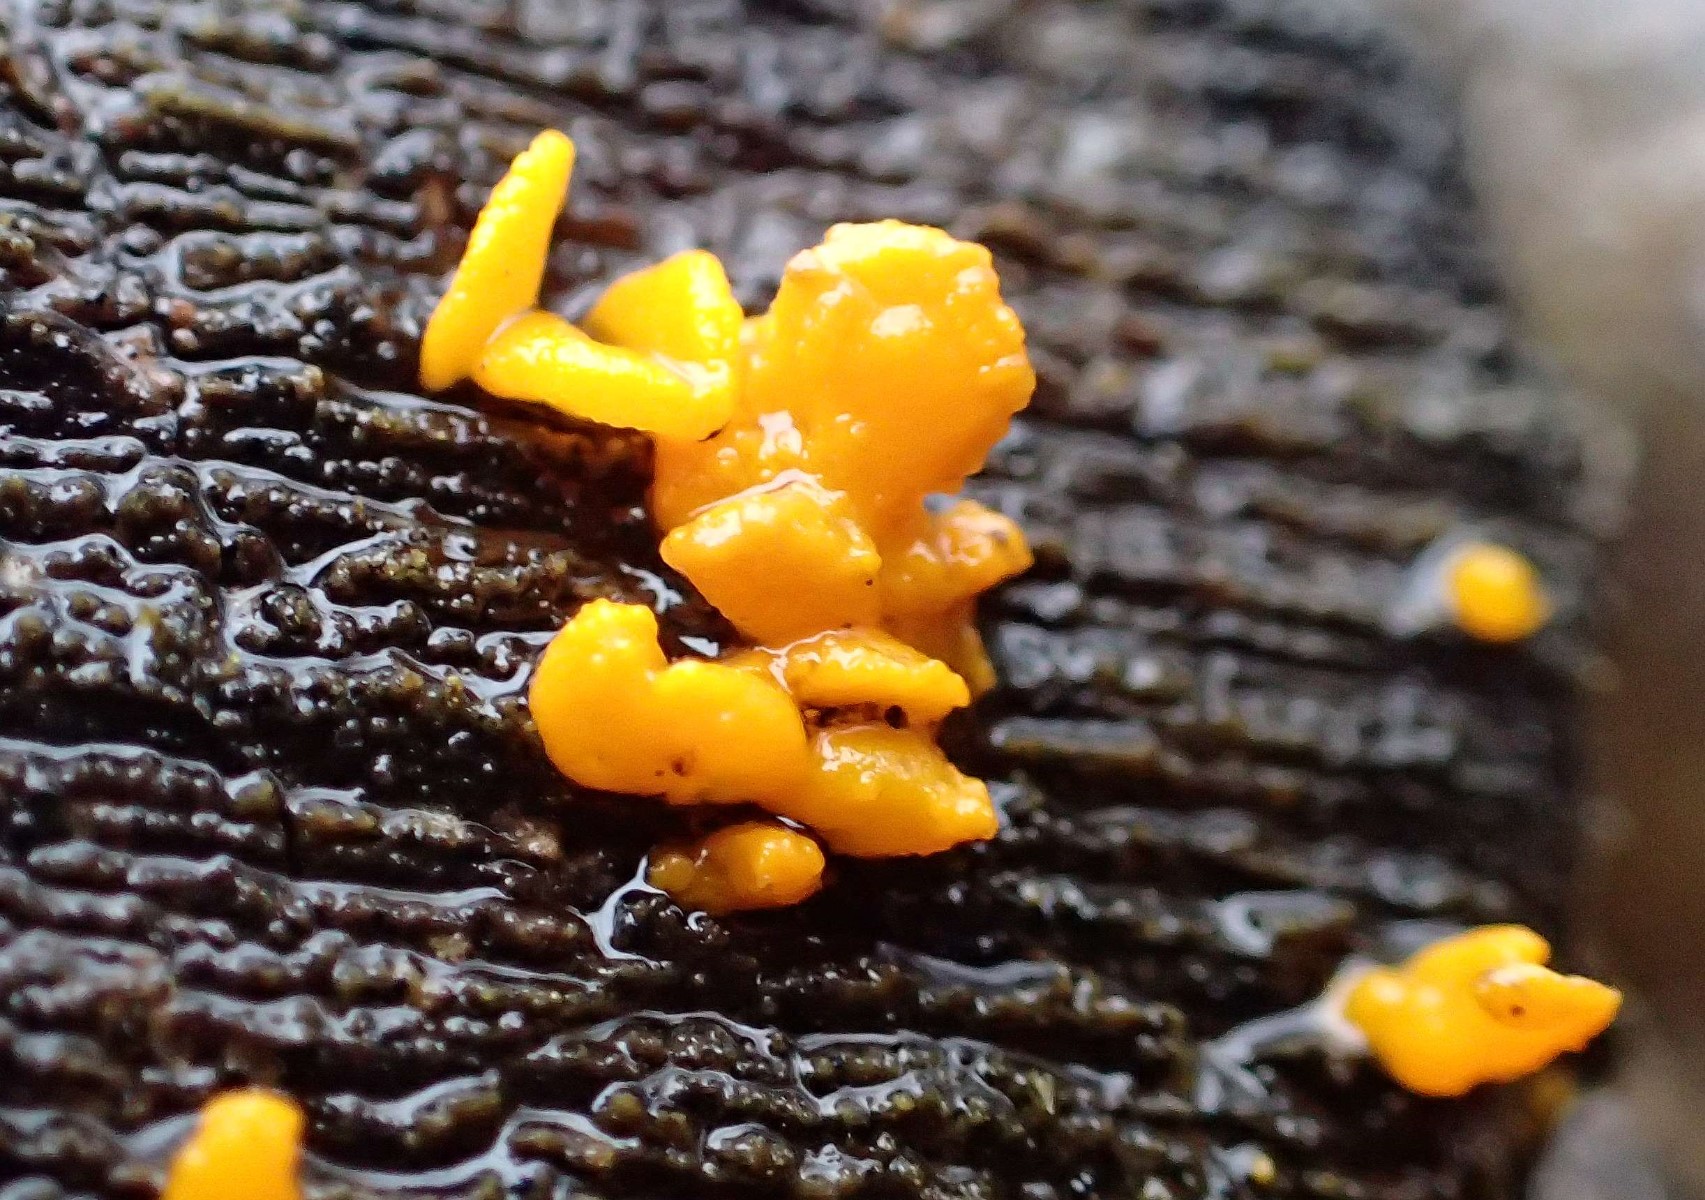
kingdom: Fungi
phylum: Basidiomycota
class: Dacrymycetes
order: Dacrymycetales
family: Dacrymycetaceae
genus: Calocera
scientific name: Calocera cornea
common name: liden guldgaffel
